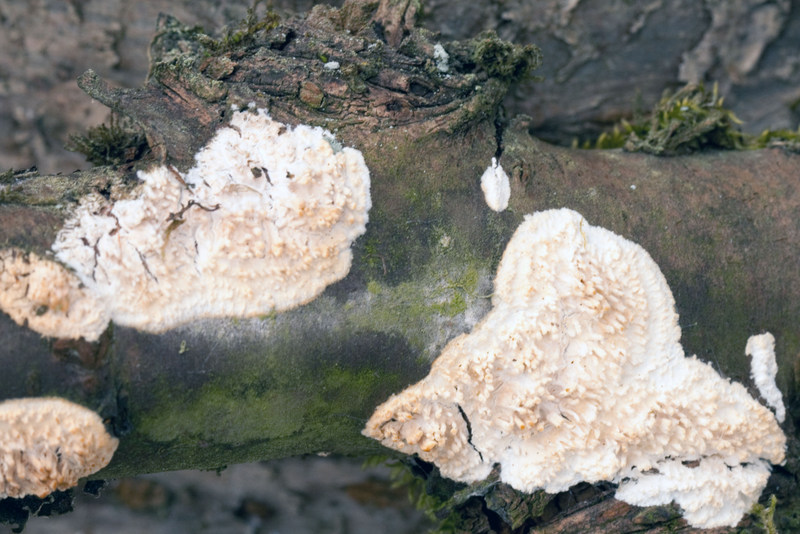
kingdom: Fungi
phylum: Basidiomycota
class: Agaricomycetes
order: Hymenochaetales
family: Schizoporaceae
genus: Xylodon
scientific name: Xylodon radula
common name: grovtandet kalkskind
